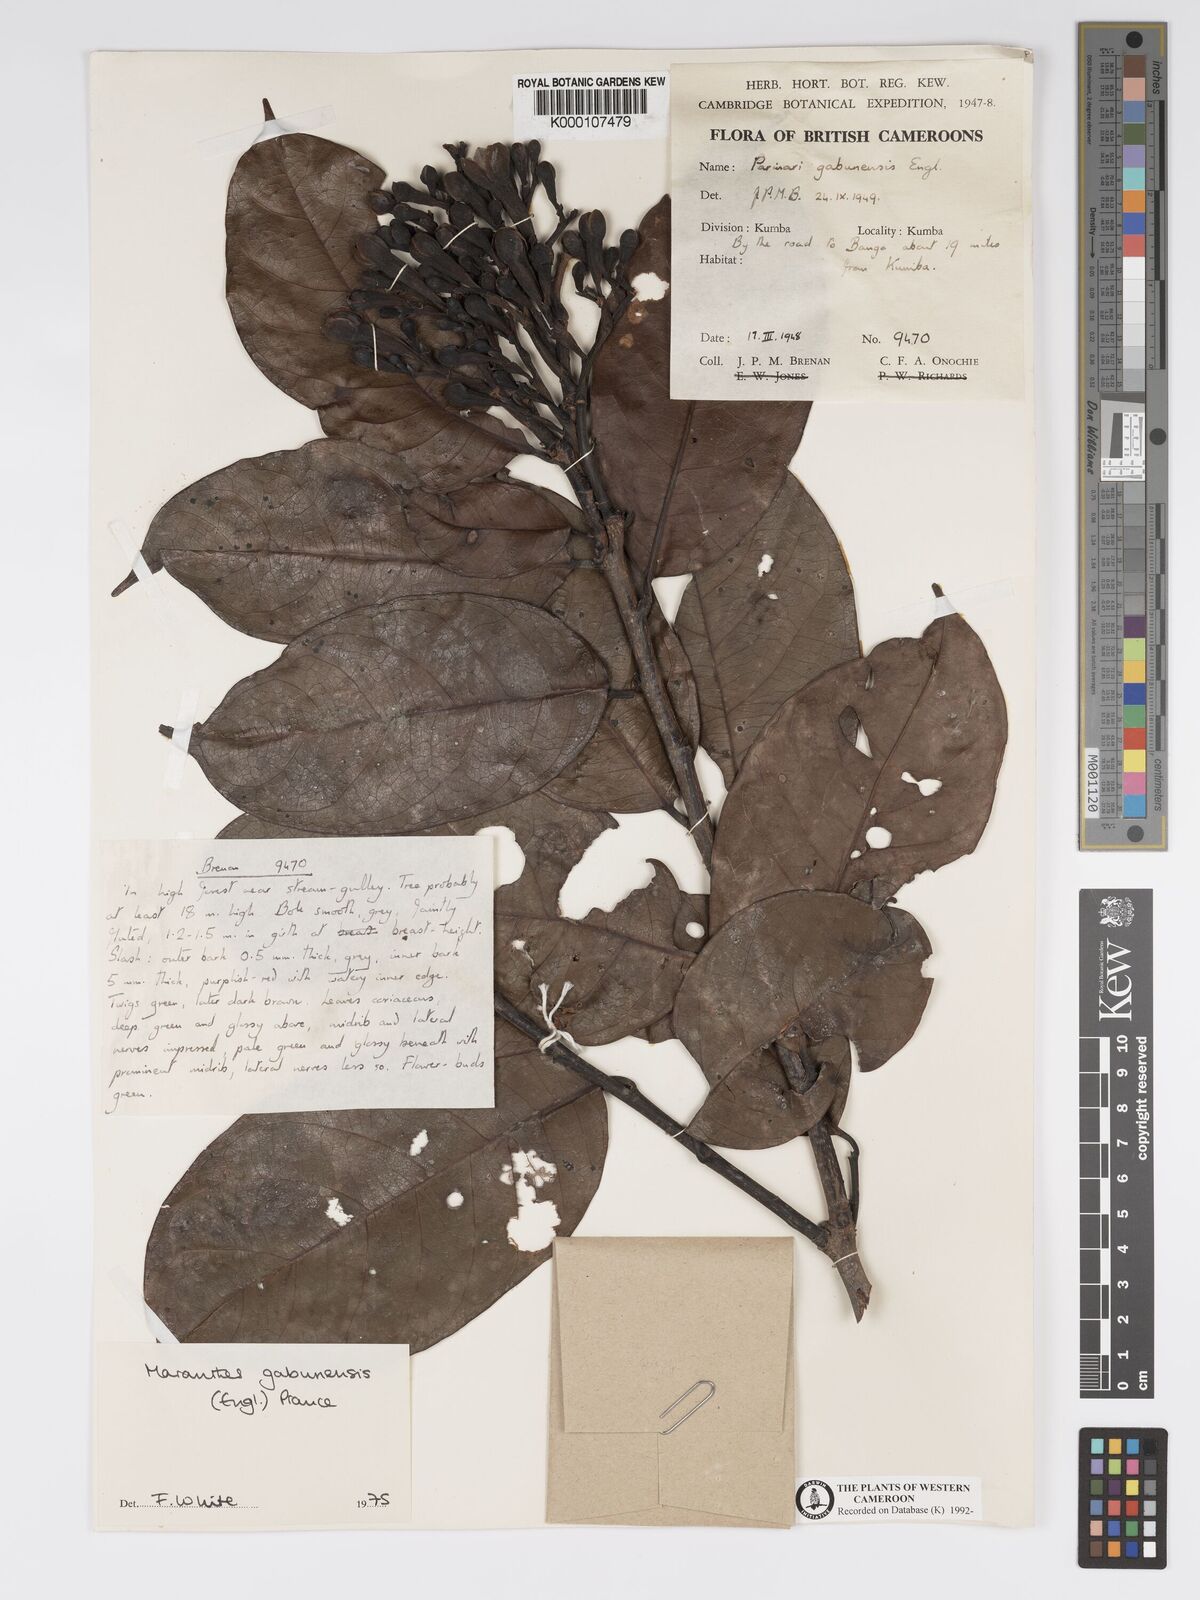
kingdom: Plantae
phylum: Tracheophyta
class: Magnoliopsida
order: Malpighiales
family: Chrysobalanaceae
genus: Maranthes
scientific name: Maranthes gabunensis
